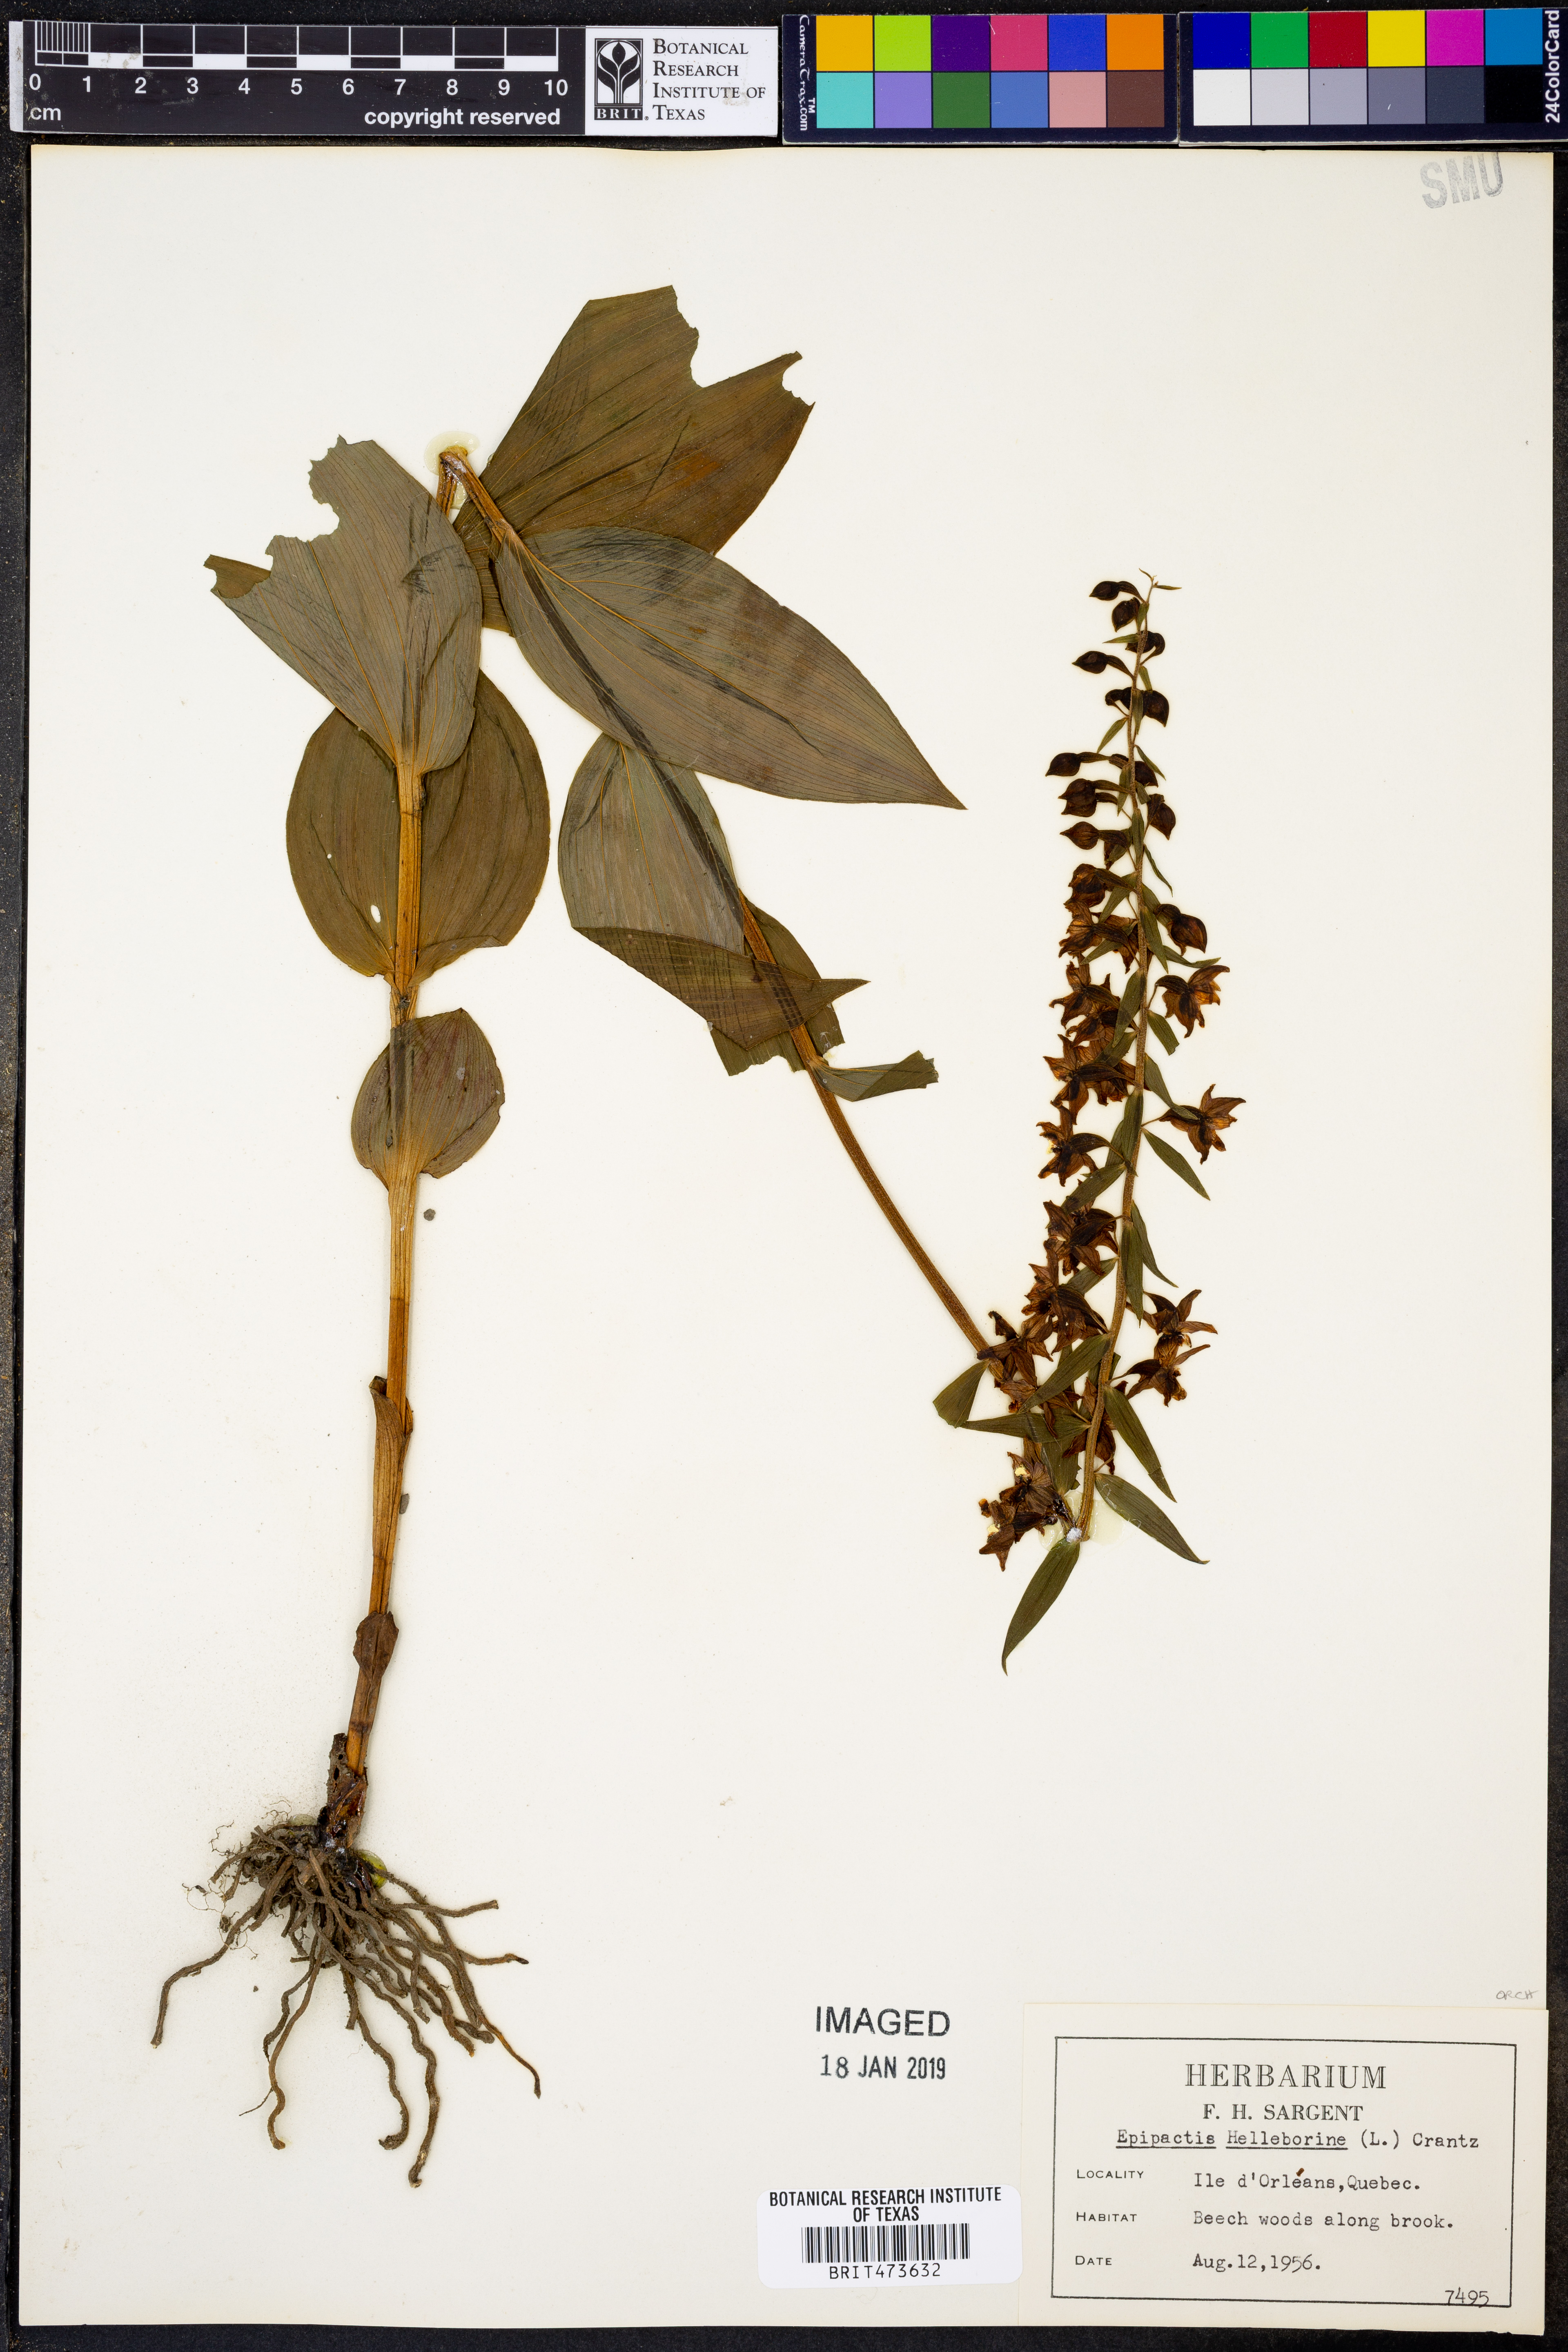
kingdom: Plantae
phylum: Tracheophyta
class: Liliopsida
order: Asparagales
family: Orchidaceae
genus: Epipactis
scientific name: Epipactis helleborine
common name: Broad-leaved helleborine
